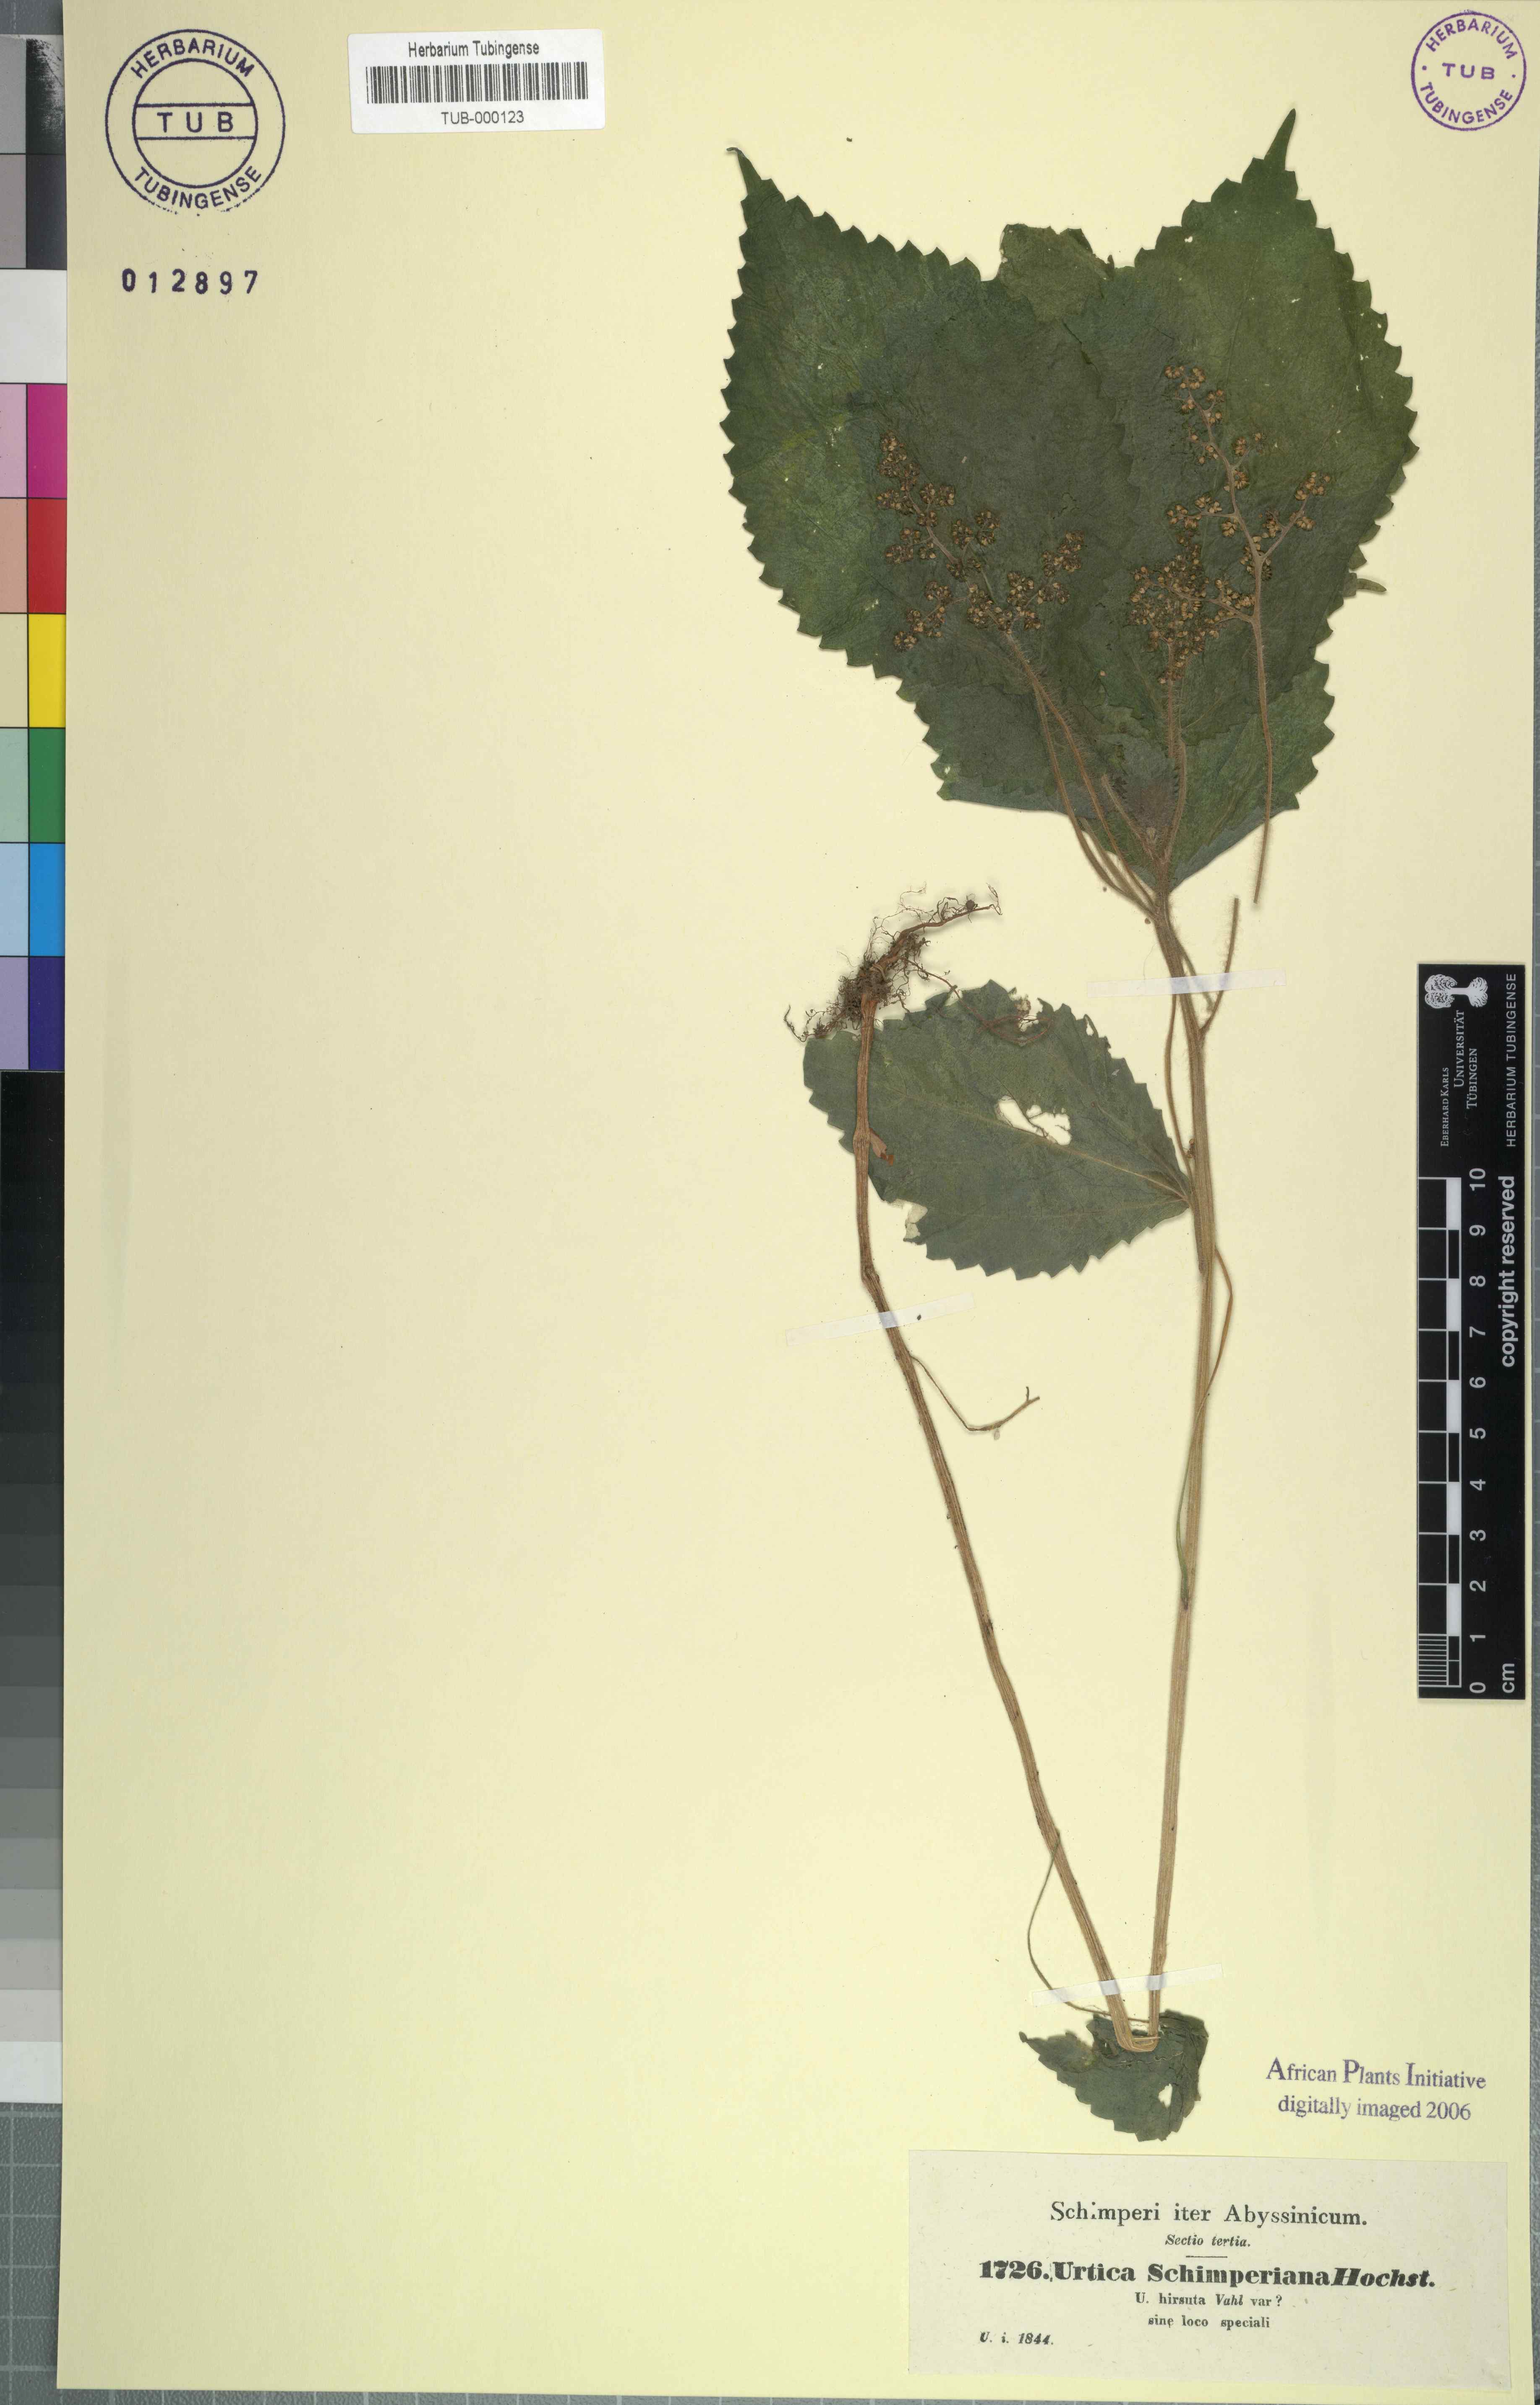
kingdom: Plantae
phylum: Tracheophyta
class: Magnoliopsida
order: Rosales
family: Urticaceae
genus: Laportea
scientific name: Laportea aestuans
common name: West indian woodnettle
